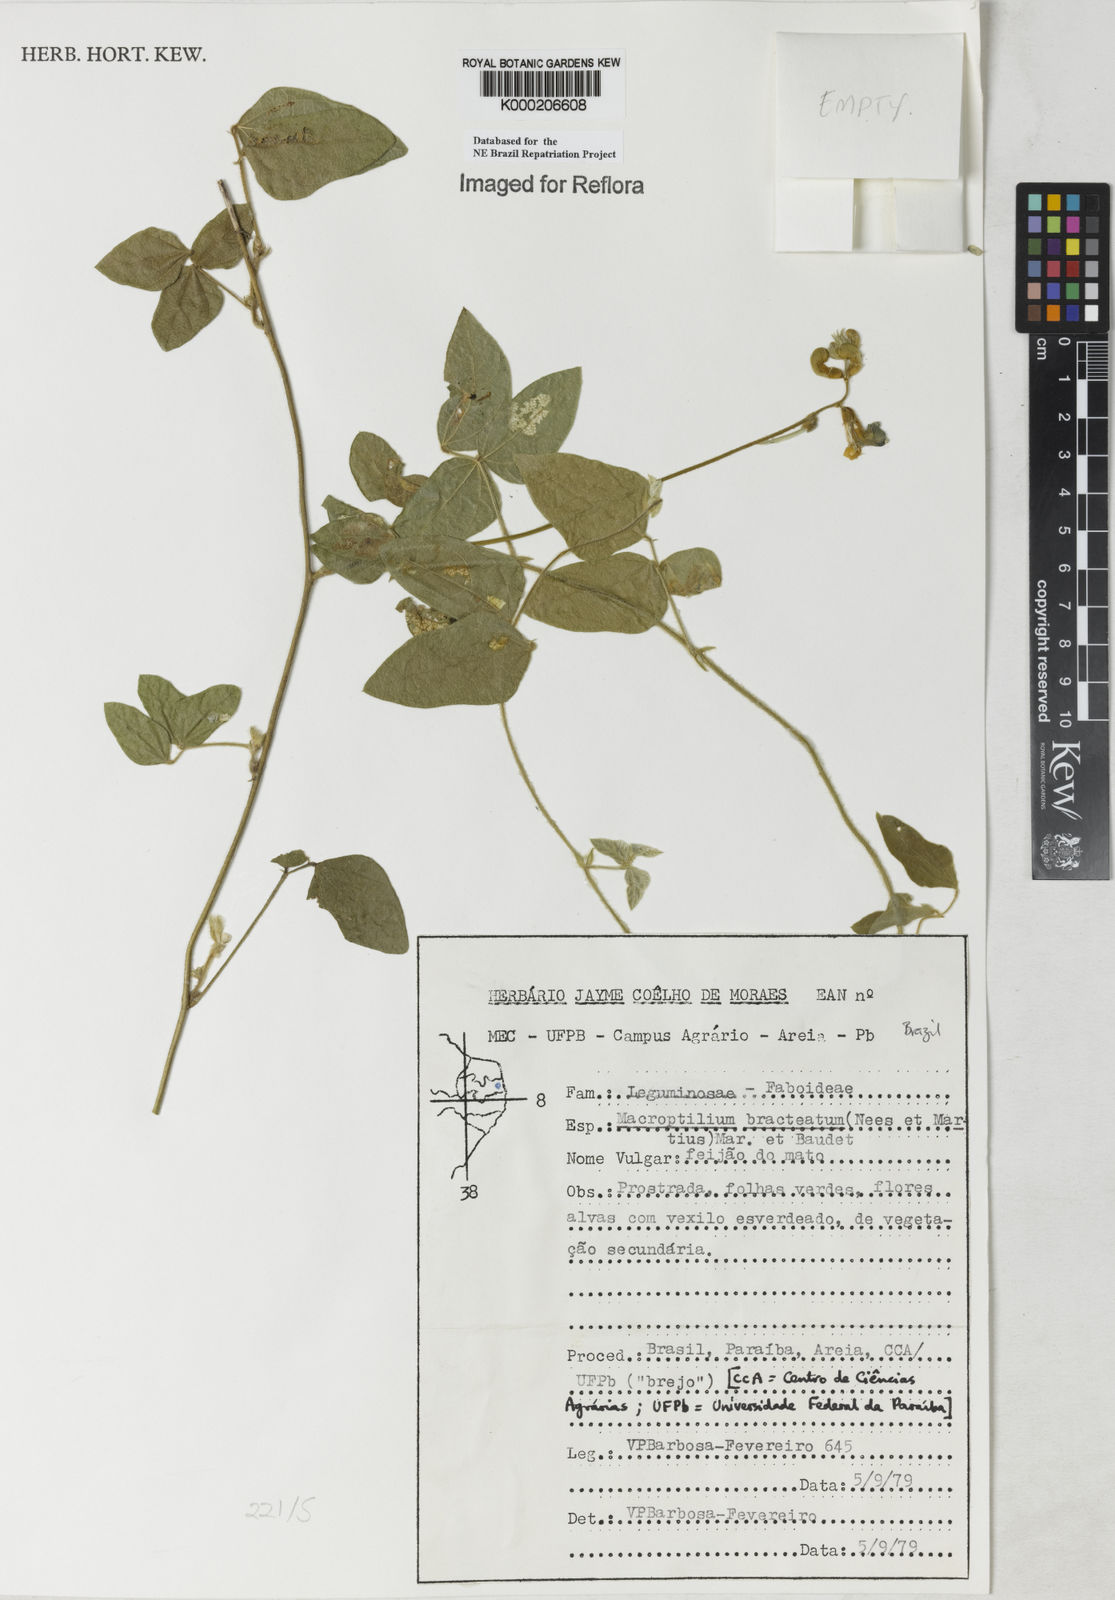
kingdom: Plantae
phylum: Tracheophyta
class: Magnoliopsida
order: Fabales
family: Fabaceae
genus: Macroptilium
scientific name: Macroptilium
